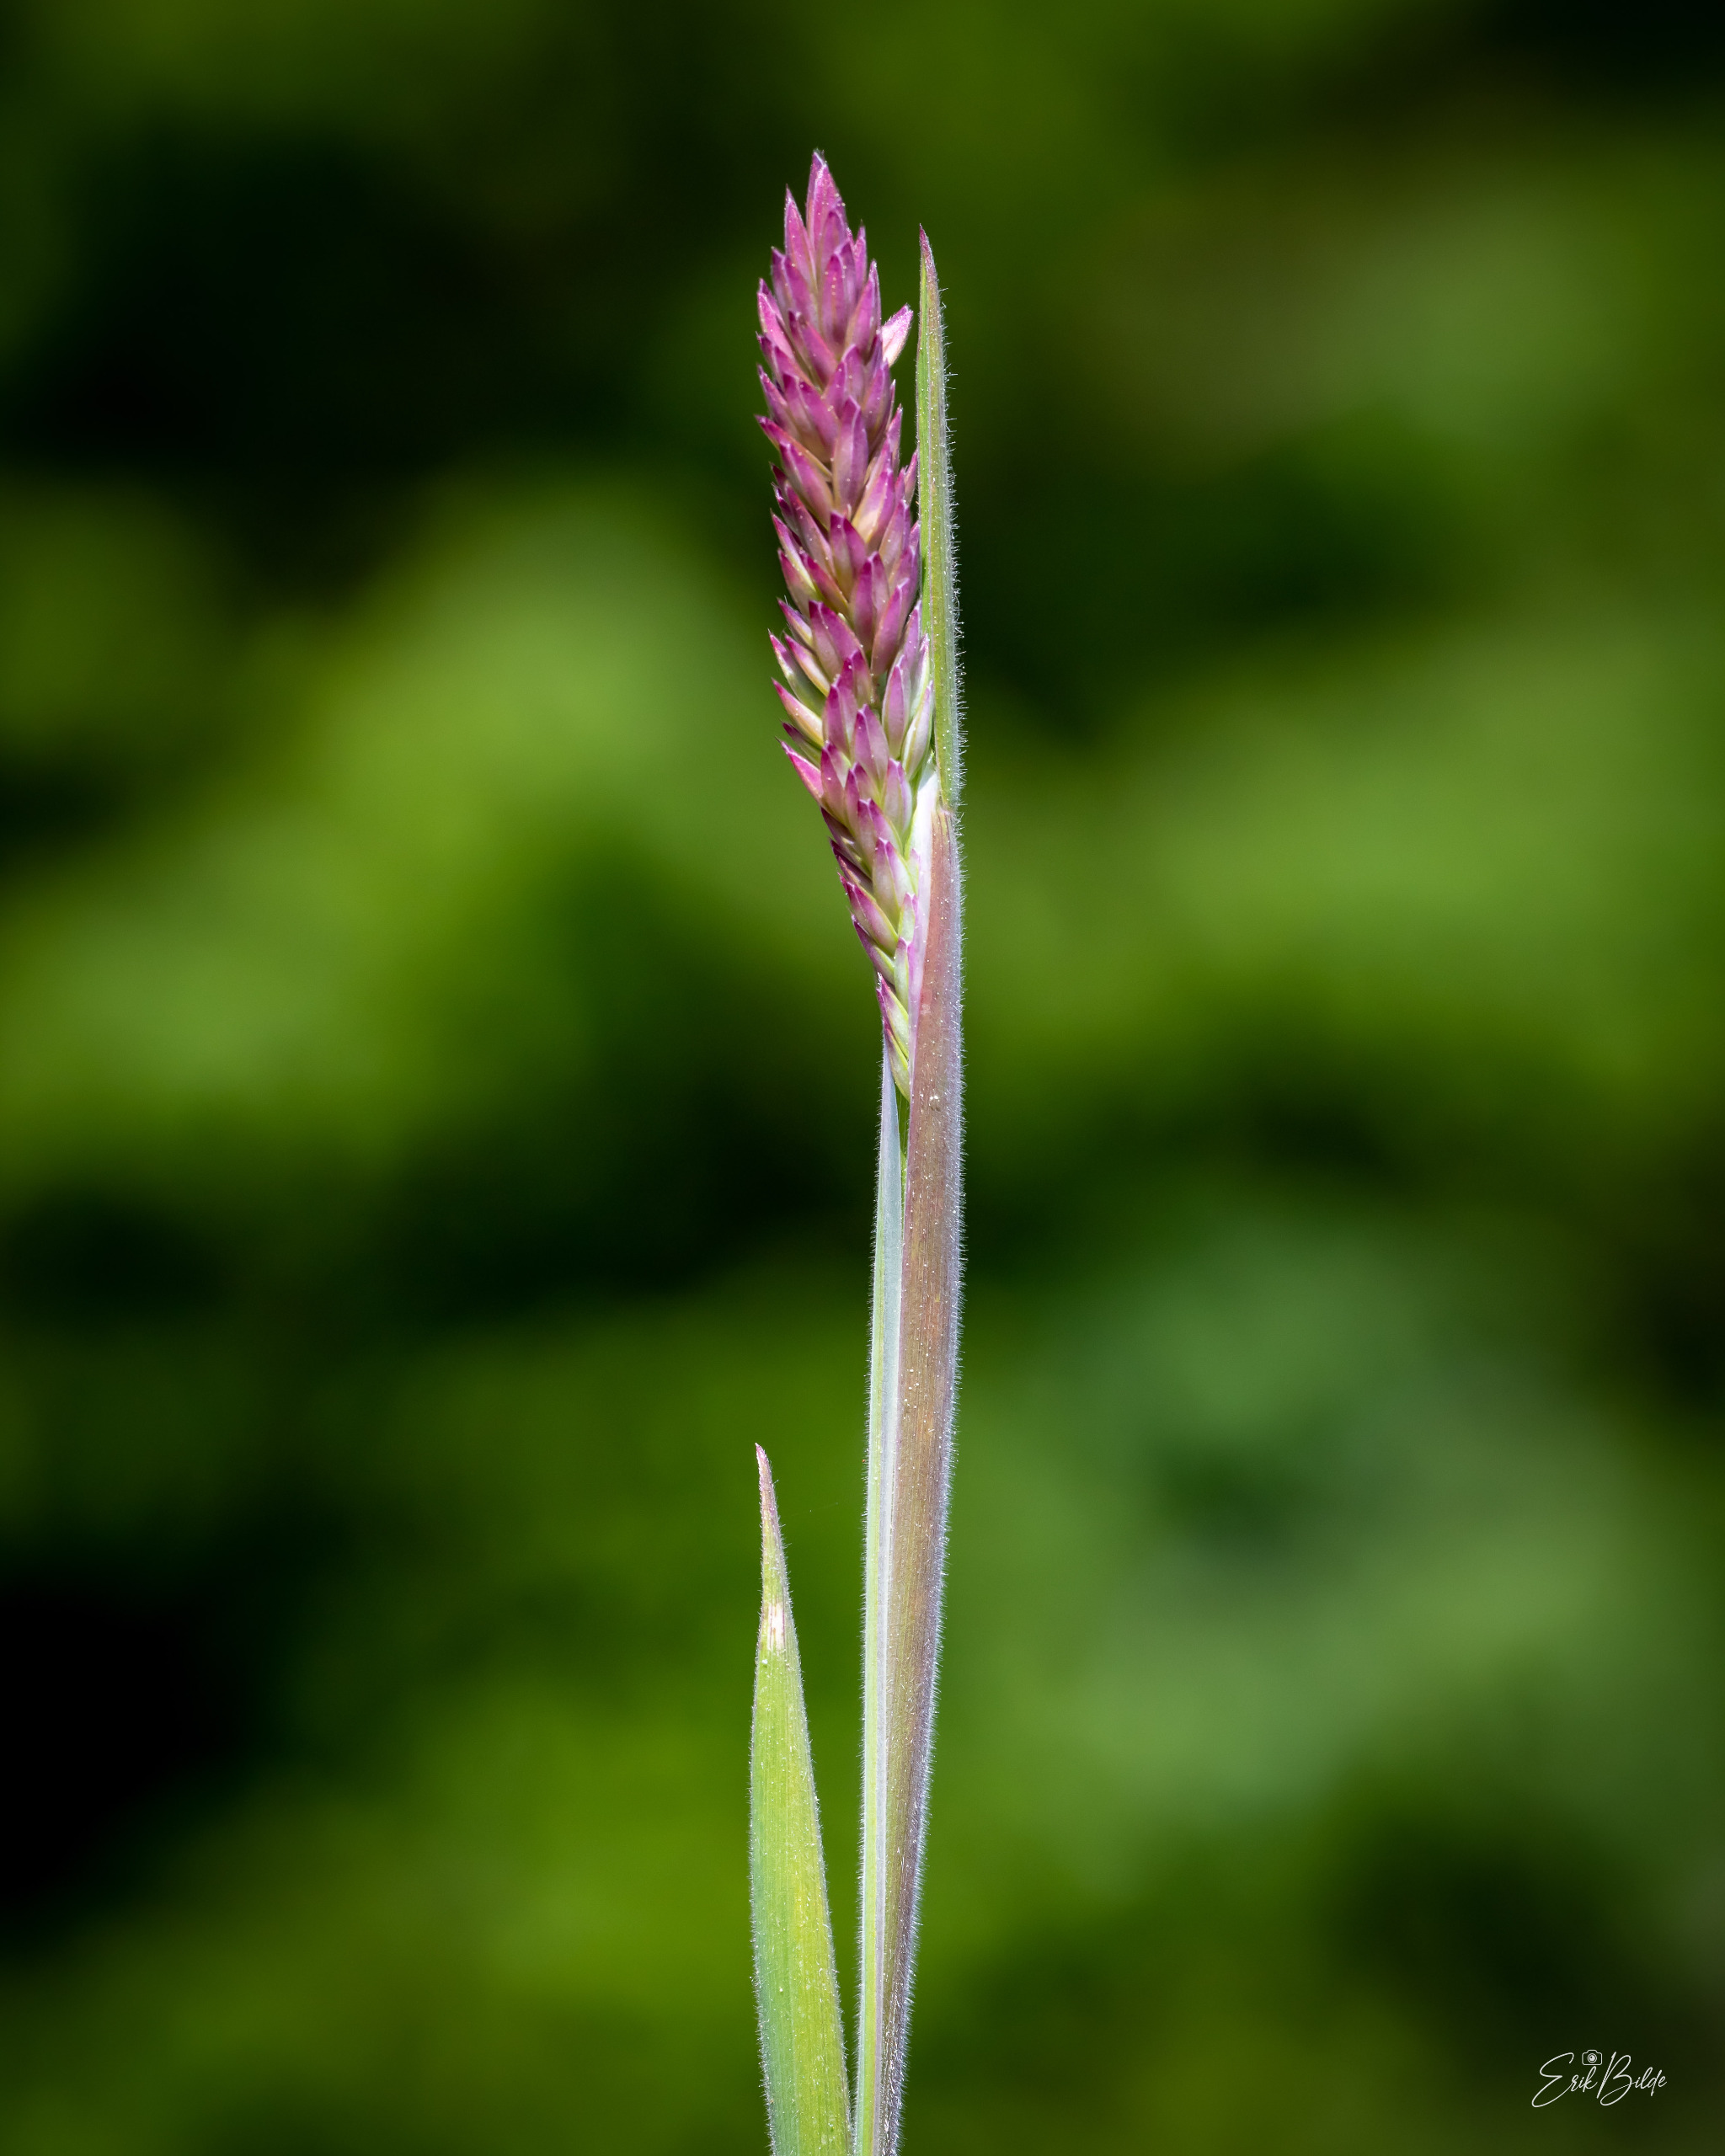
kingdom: Plantae
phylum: Tracheophyta
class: Liliopsida
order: Poales
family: Poaceae
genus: Holcus
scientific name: Holcus lanatus
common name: Fløjlsgræs
